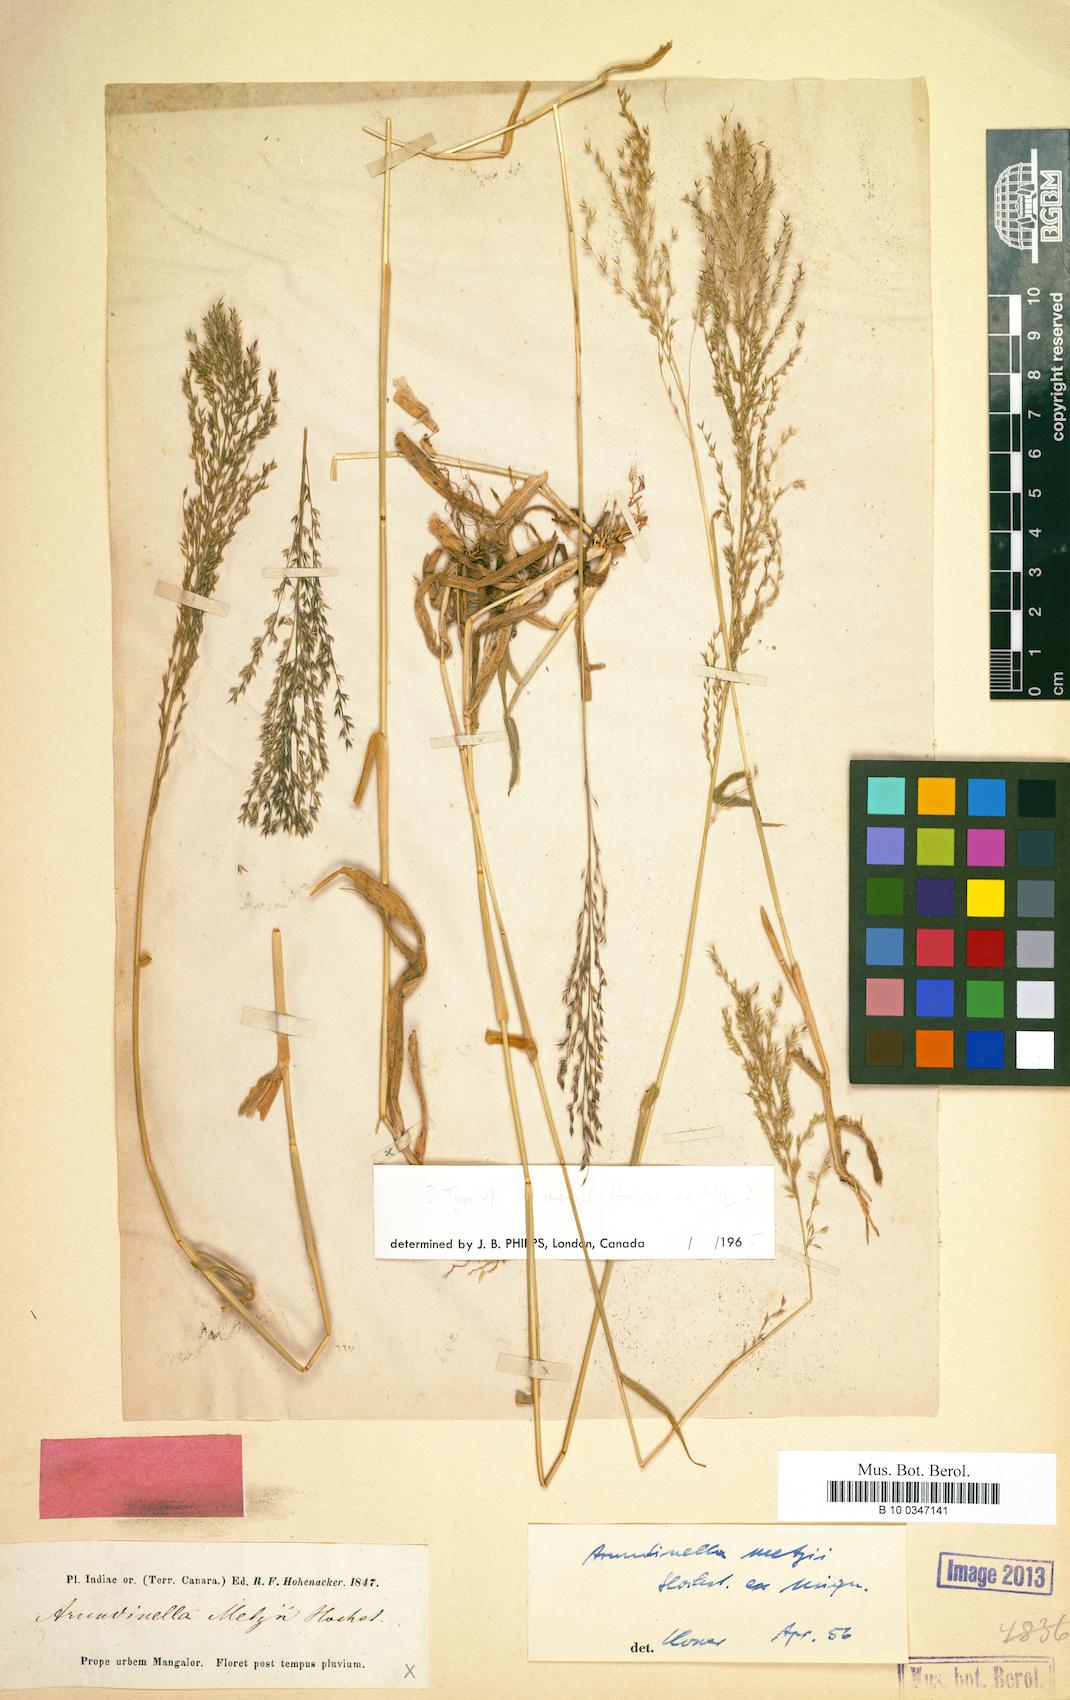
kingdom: Plantae
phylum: Tracheophyta
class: Liliopsida
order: Poales
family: Poaceae
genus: Arundinella
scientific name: Arundinella metzii
